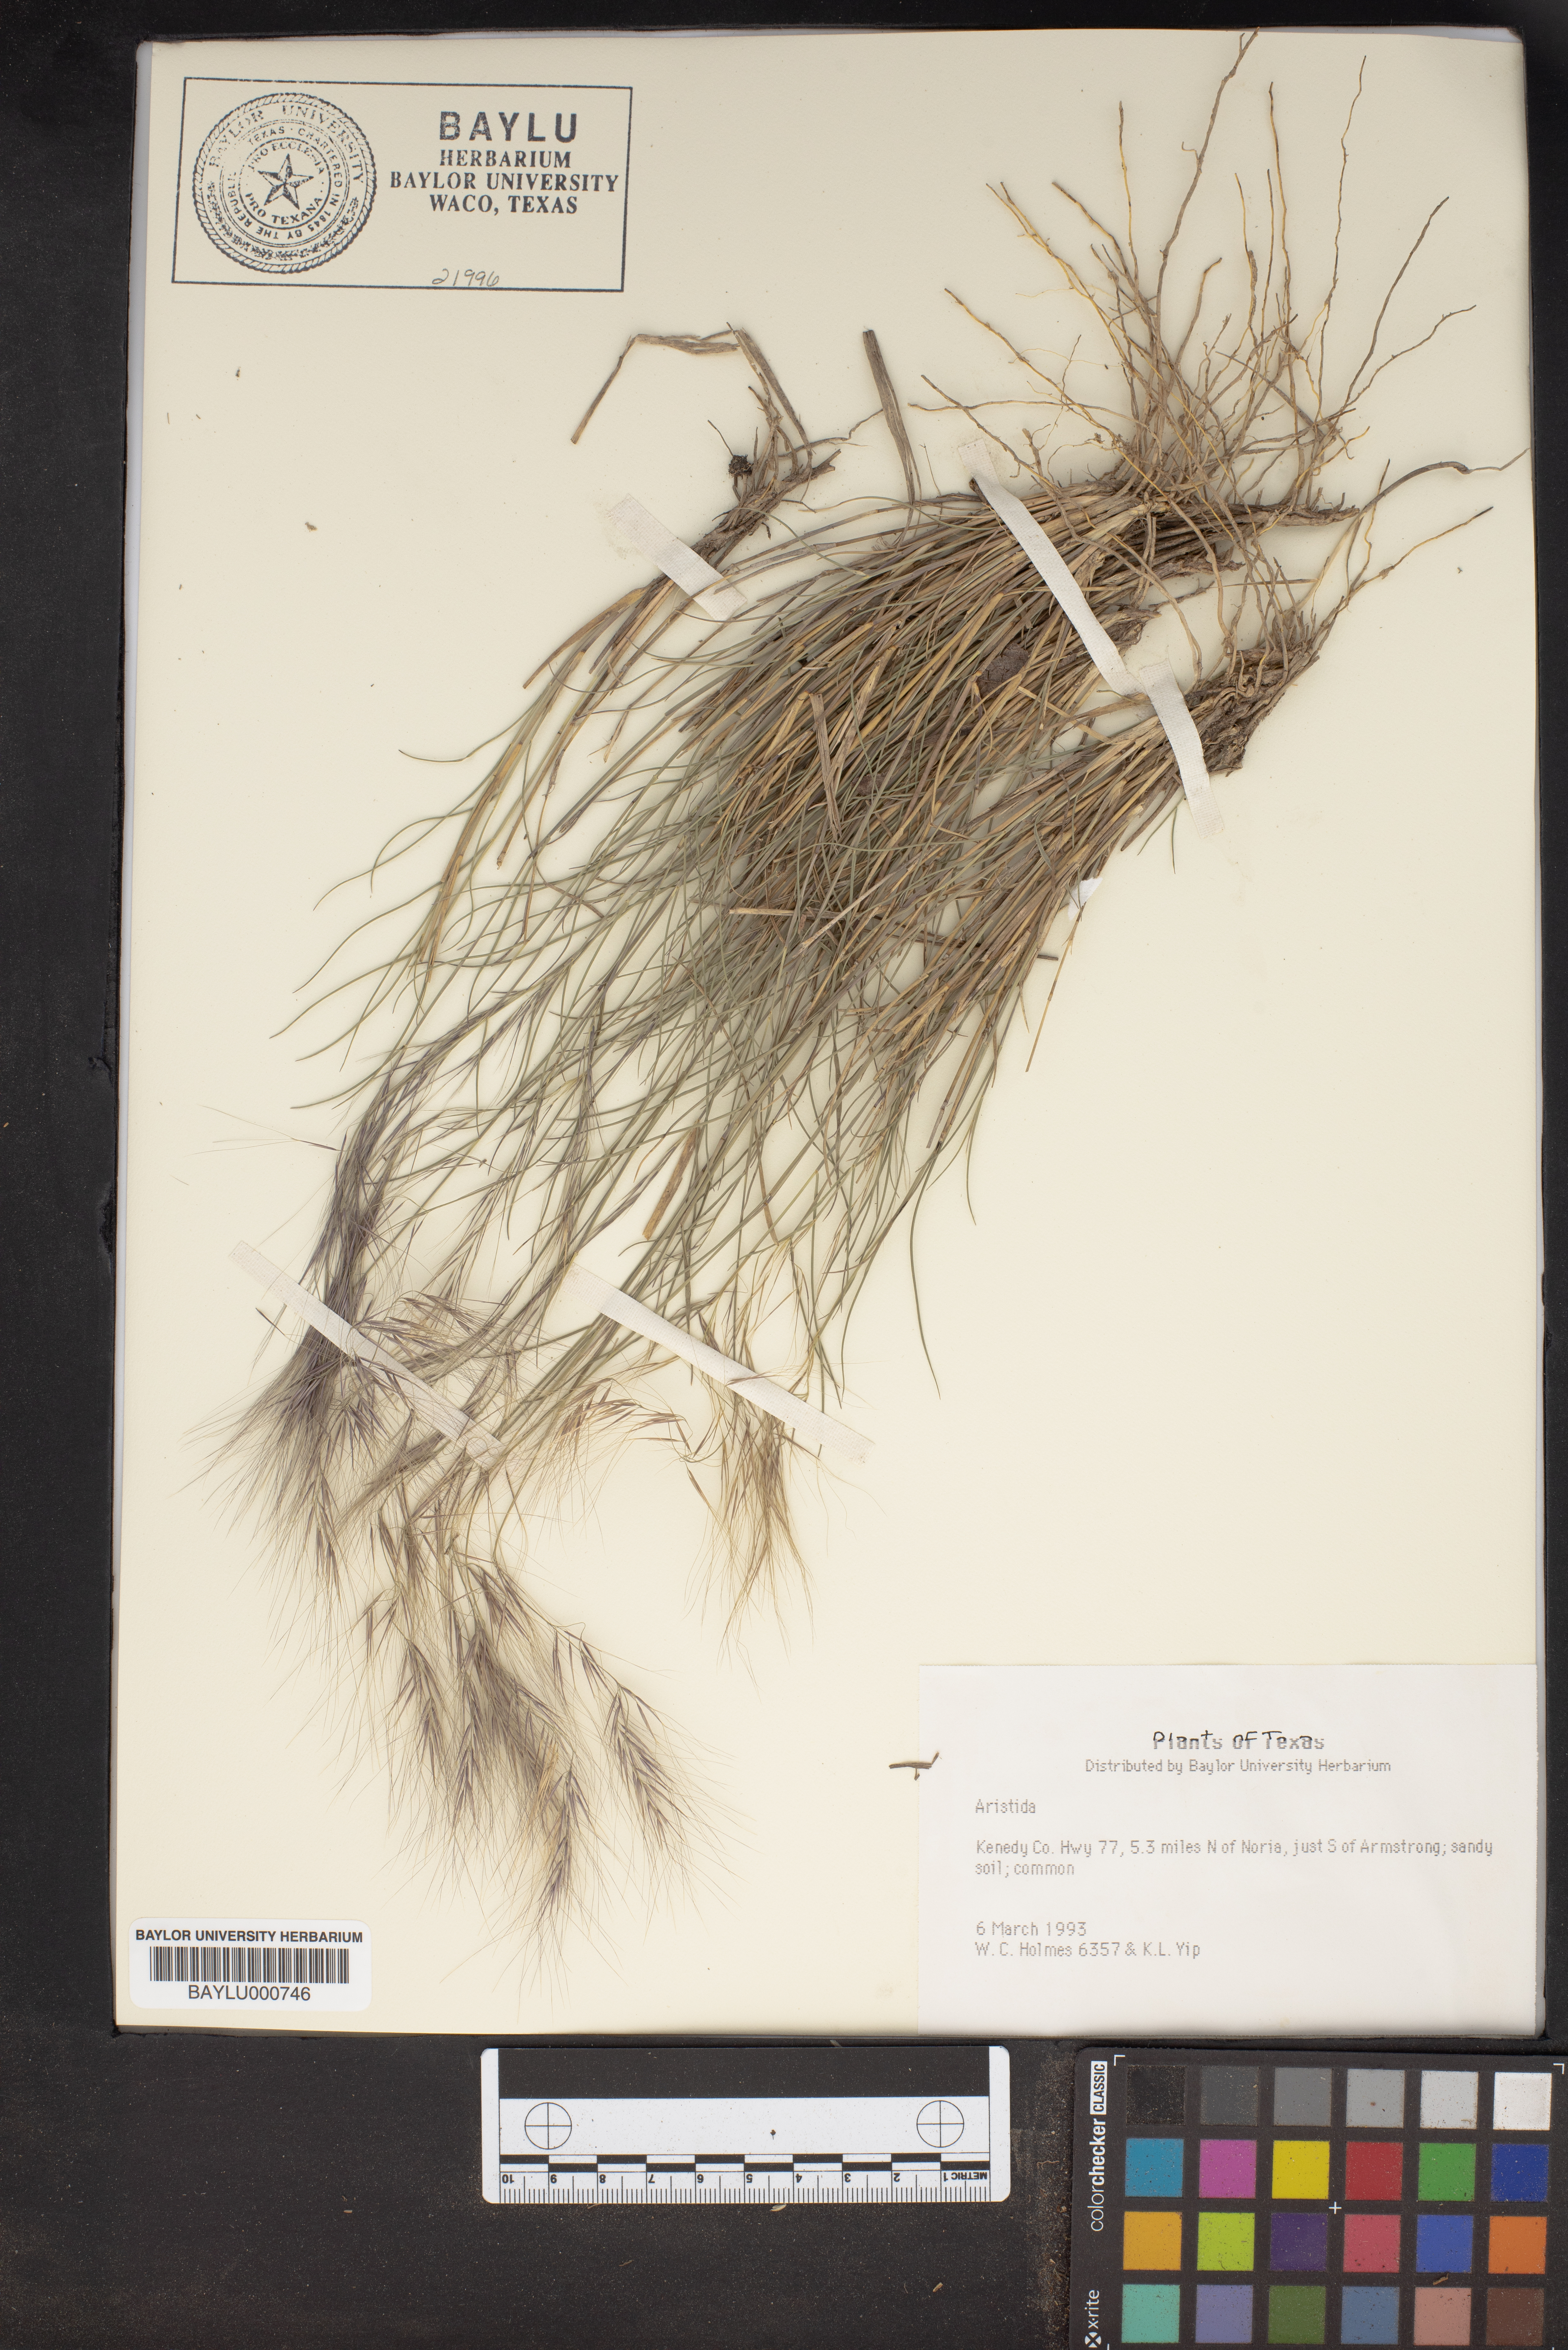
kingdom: Plantae
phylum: Tracheophyta
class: Liliopsida
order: Poales
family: Poaceae
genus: Aristida
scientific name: Aristida
